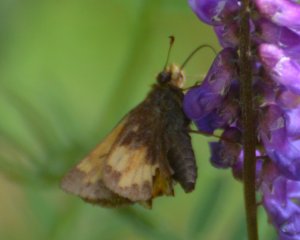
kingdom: Animalia
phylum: Arthropoda
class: Insecta
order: Lepidoptera
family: Hesperiidae
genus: Lon
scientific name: Lon hobomok
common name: Hobomok Skipper
